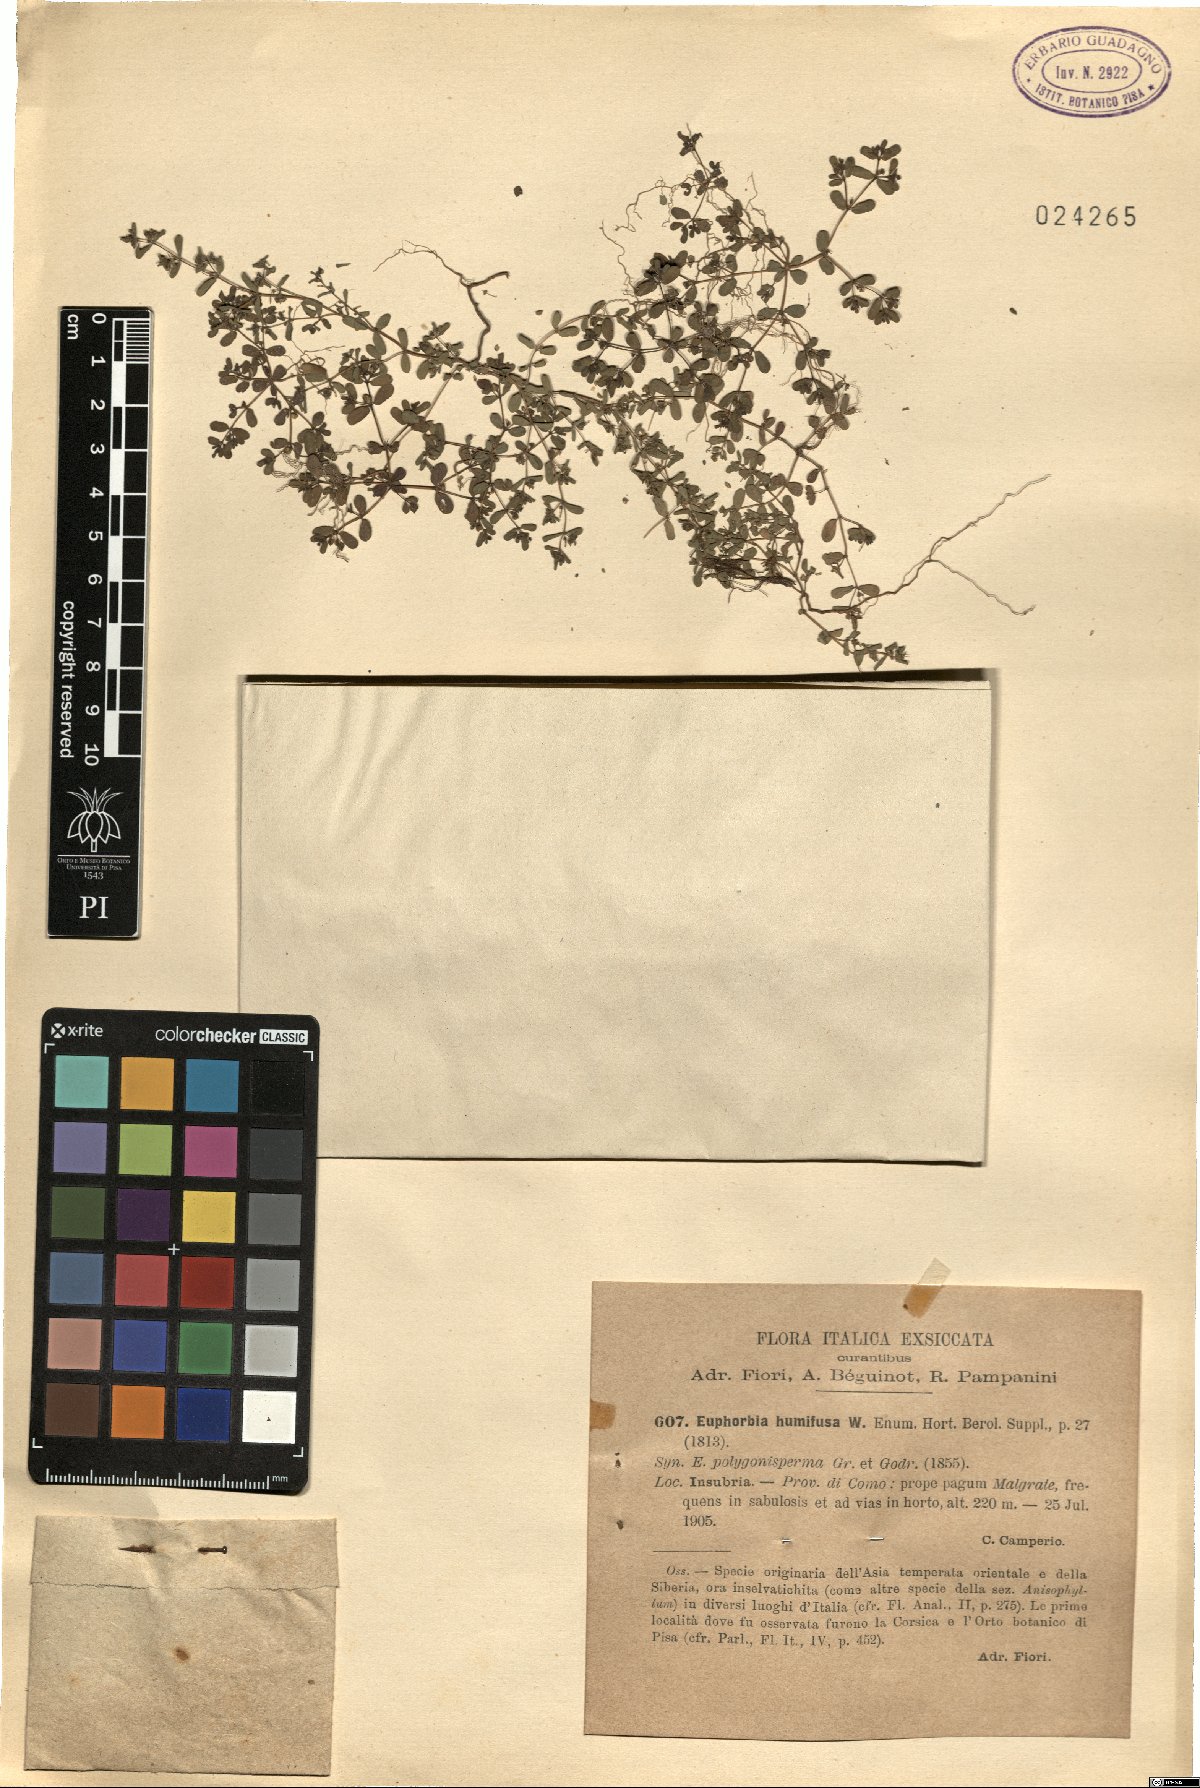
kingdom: Plantae
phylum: Tracheophyta
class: Magnoliopsida
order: Malpighiales
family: Euphorbiaceae
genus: Euphorbia
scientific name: Euphorbia humifusa
